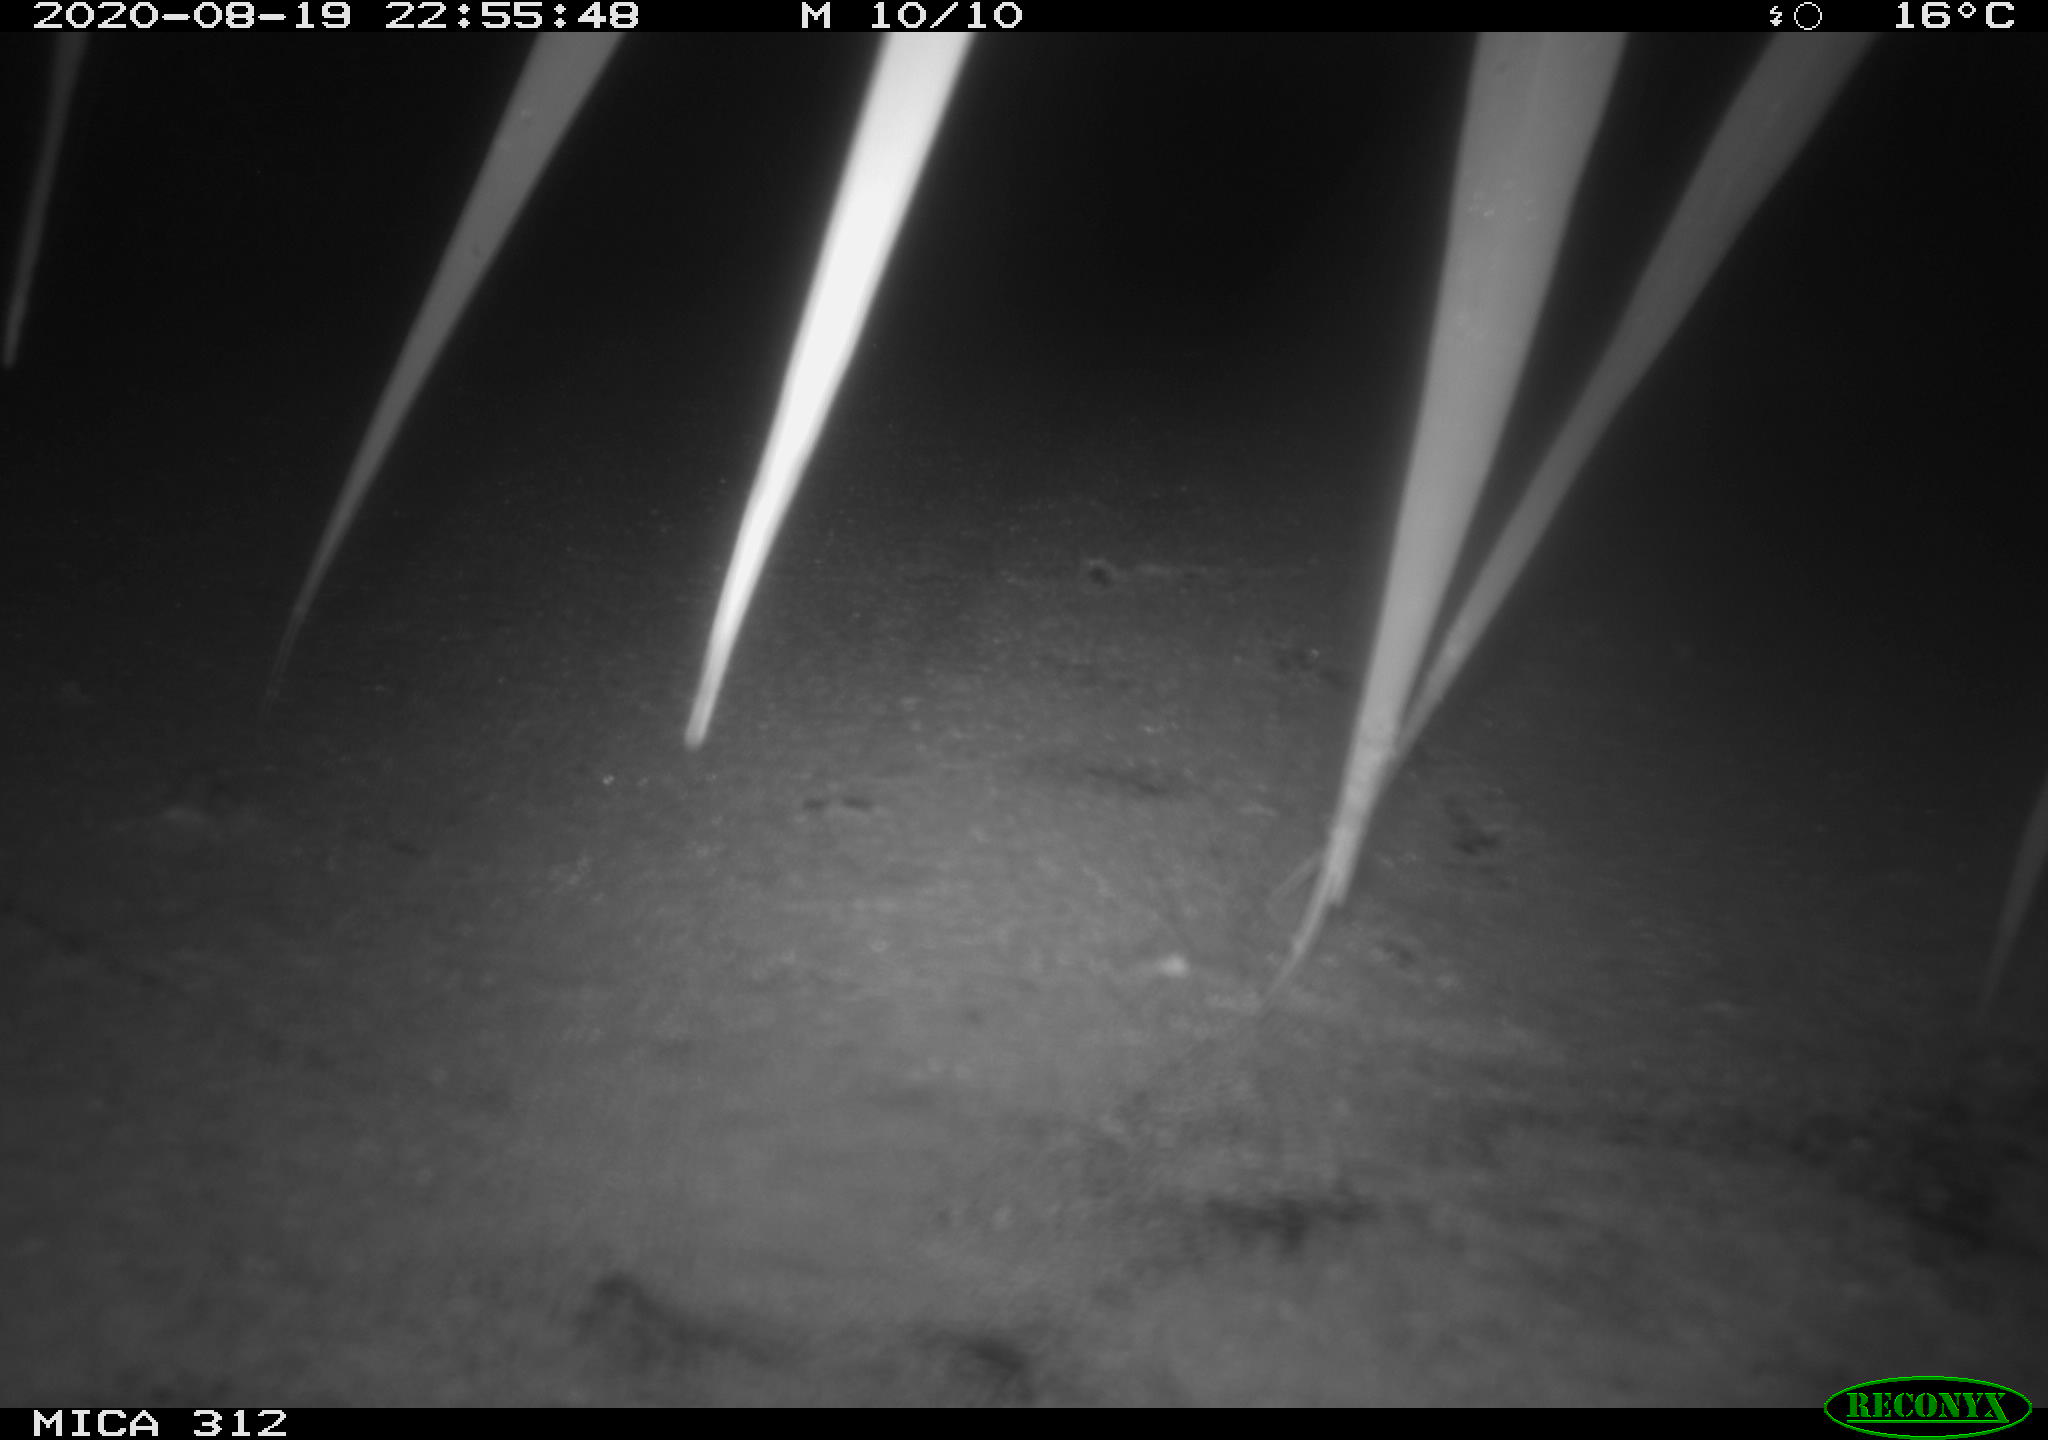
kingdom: Animalia
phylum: Chordata
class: Mammalia
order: Rodentia
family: Cricetidae
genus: Ondatra
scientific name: Ondatra zibethicus
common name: Muskrat
